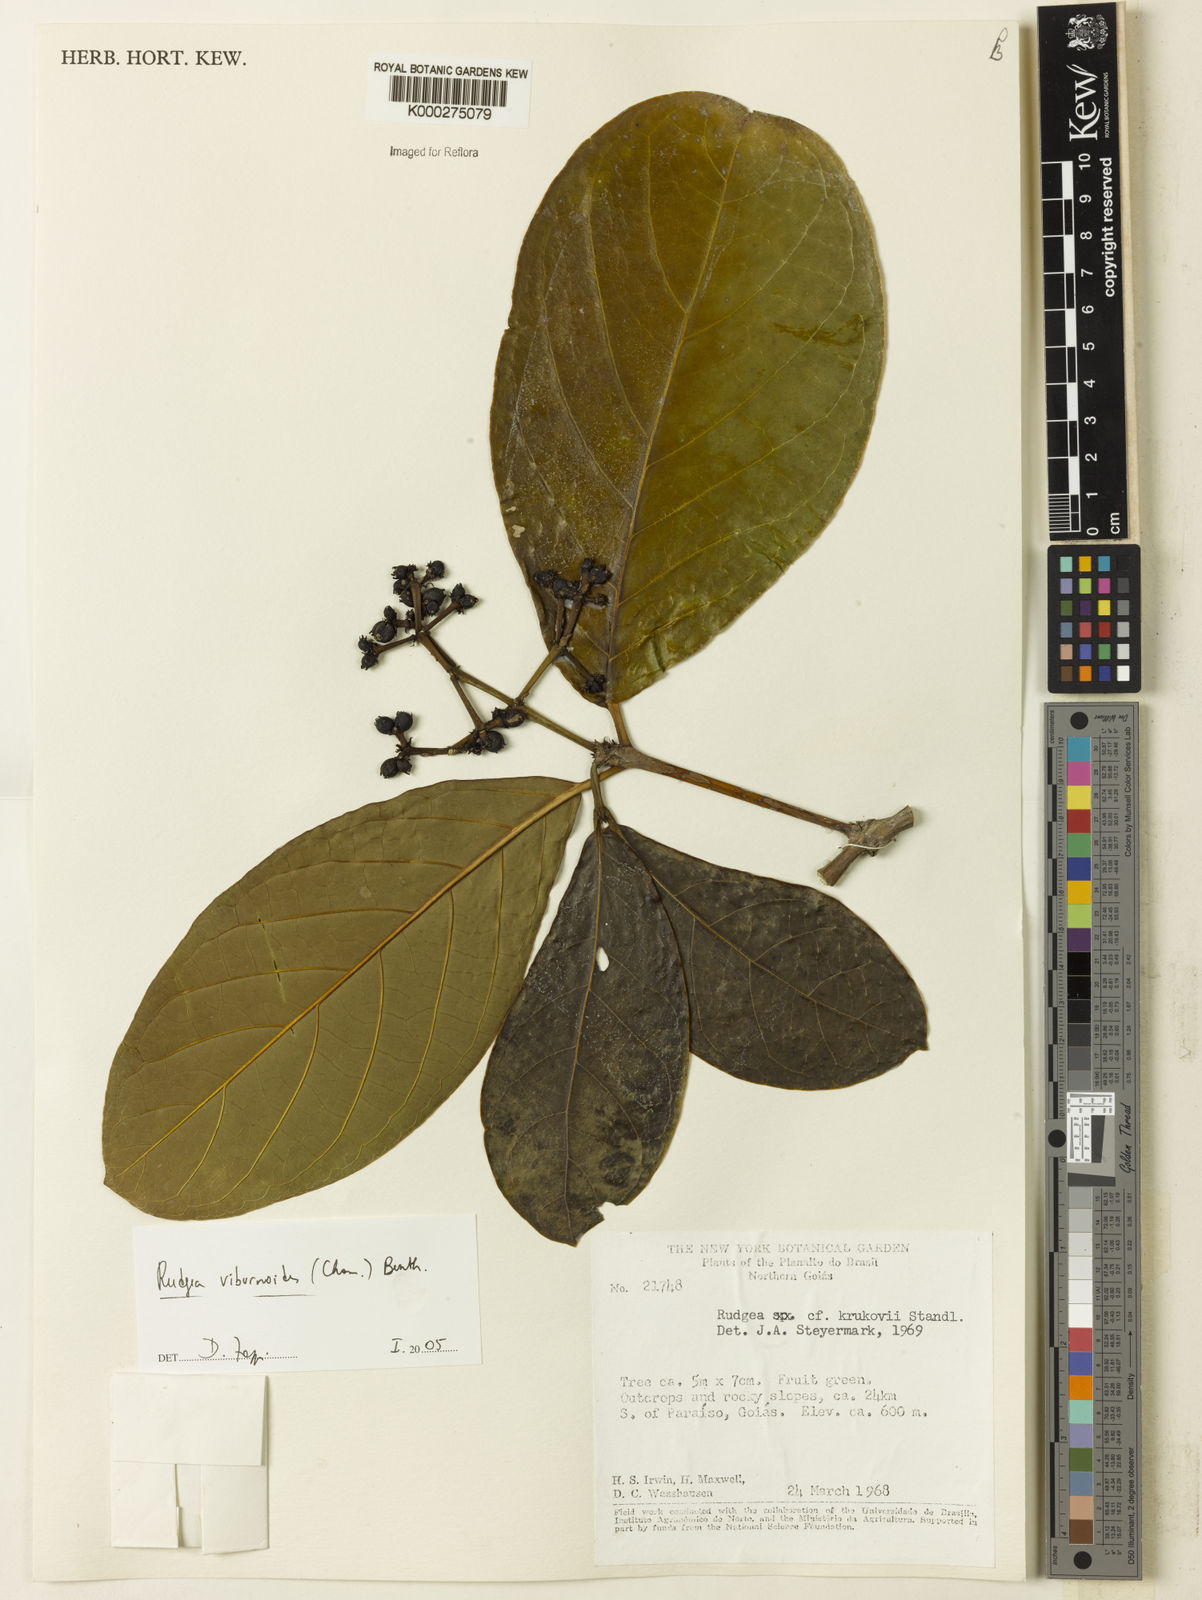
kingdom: Plantae
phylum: Tracheophyta
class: Magnoliopsida
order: Gentianales
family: Rubiaceae
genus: Rudgea
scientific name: Rudgea viburnoides
